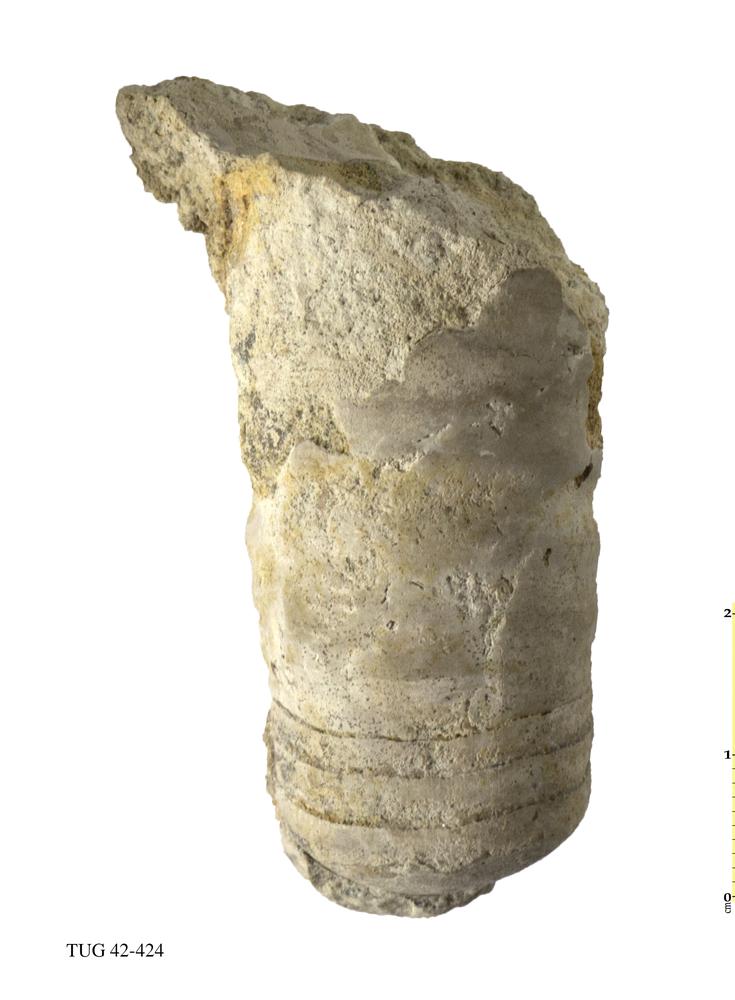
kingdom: Animalia
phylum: Mollusca
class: Cephalopoda
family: Proterocameroceratidae
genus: Anthoceras
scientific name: Anthoceras Orthoceras vaginatus
